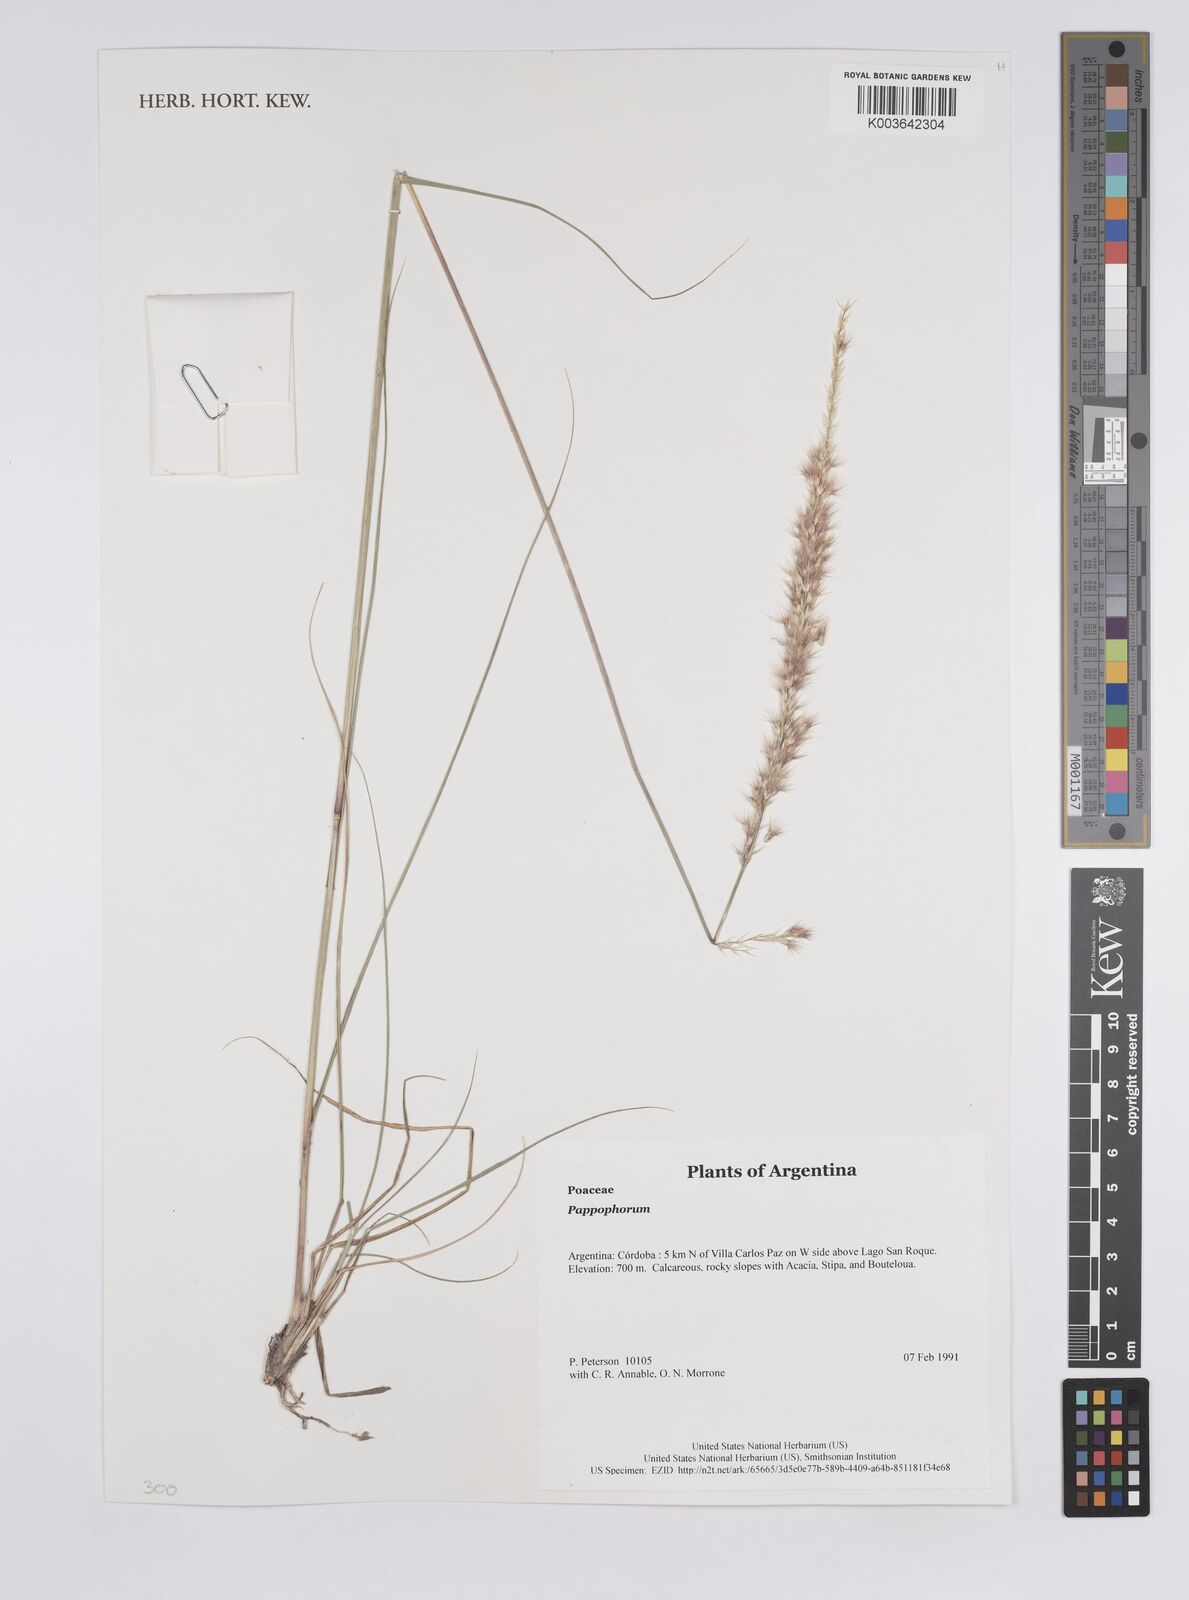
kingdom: Plantae
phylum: Tracheophyta
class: Liliopsida
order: Poales
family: Poaceae
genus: Pappophorum
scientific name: Pappophorum
